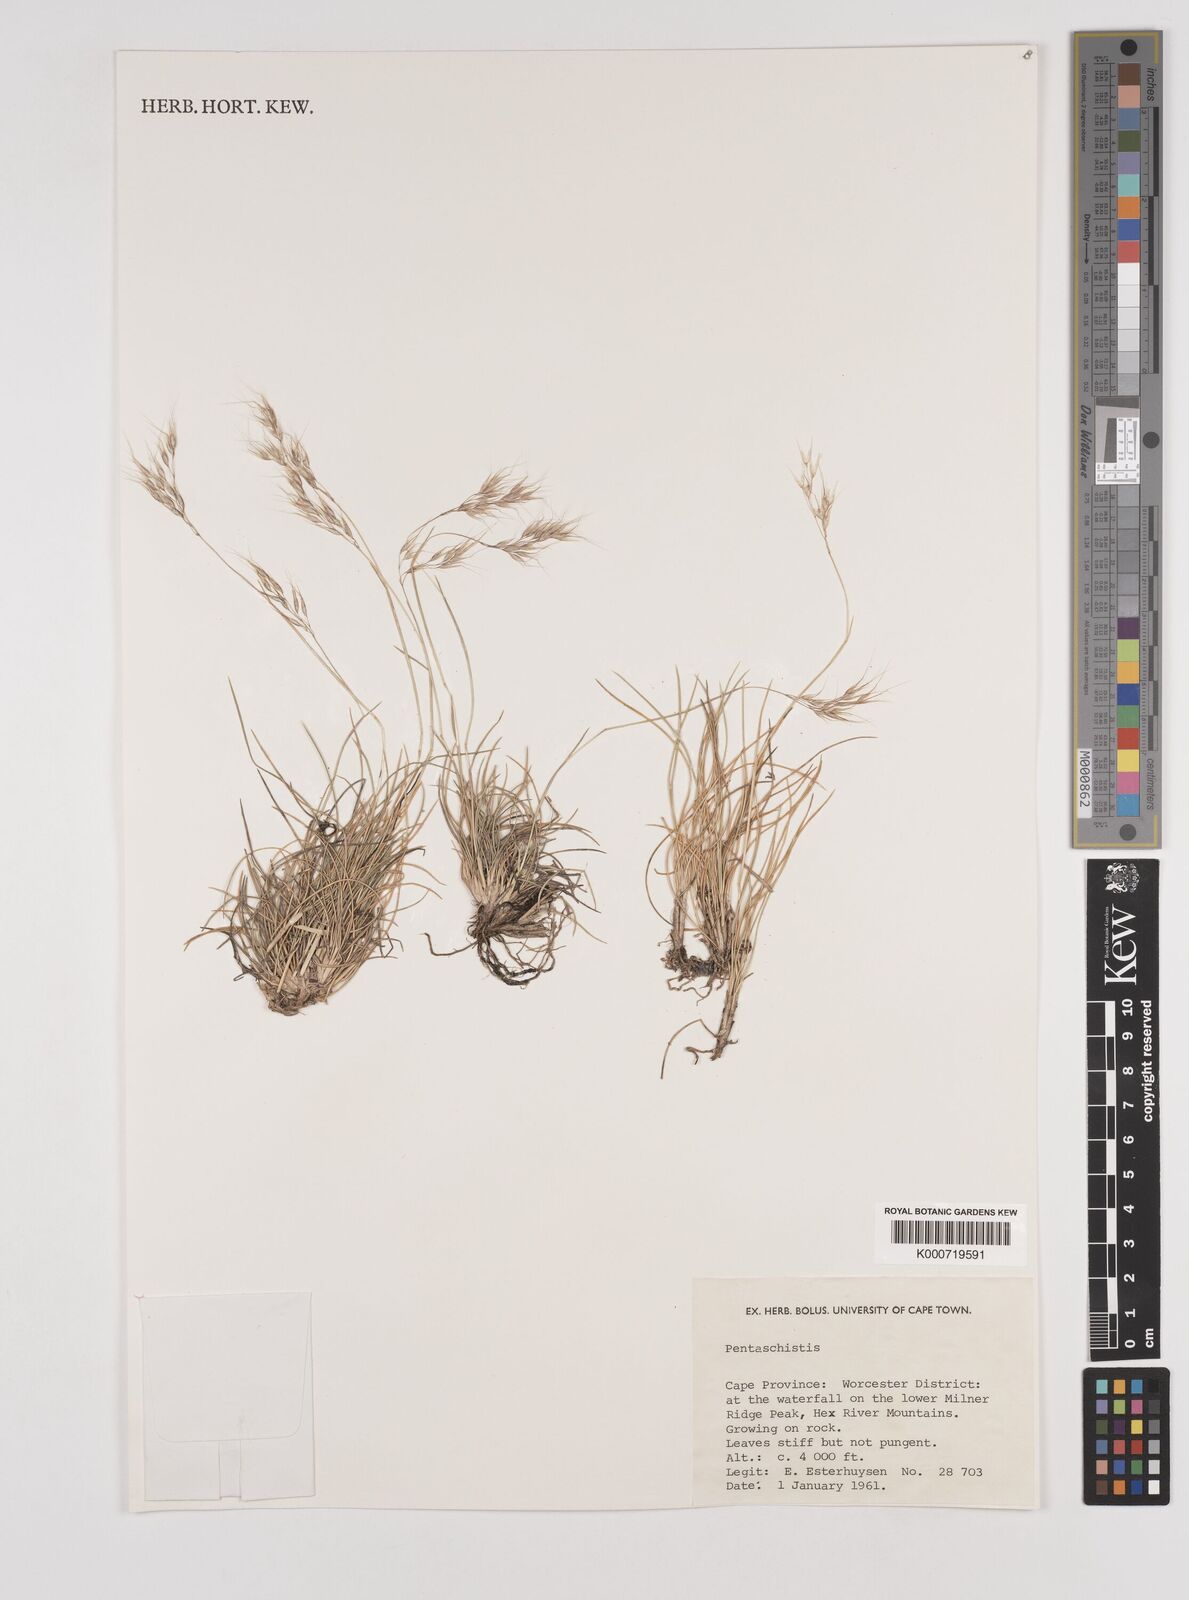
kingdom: Plantae
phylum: Tracheophyta
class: Liliopsida
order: Poales
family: Poaceae
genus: Pentameris
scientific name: Pentameris rigidissima
